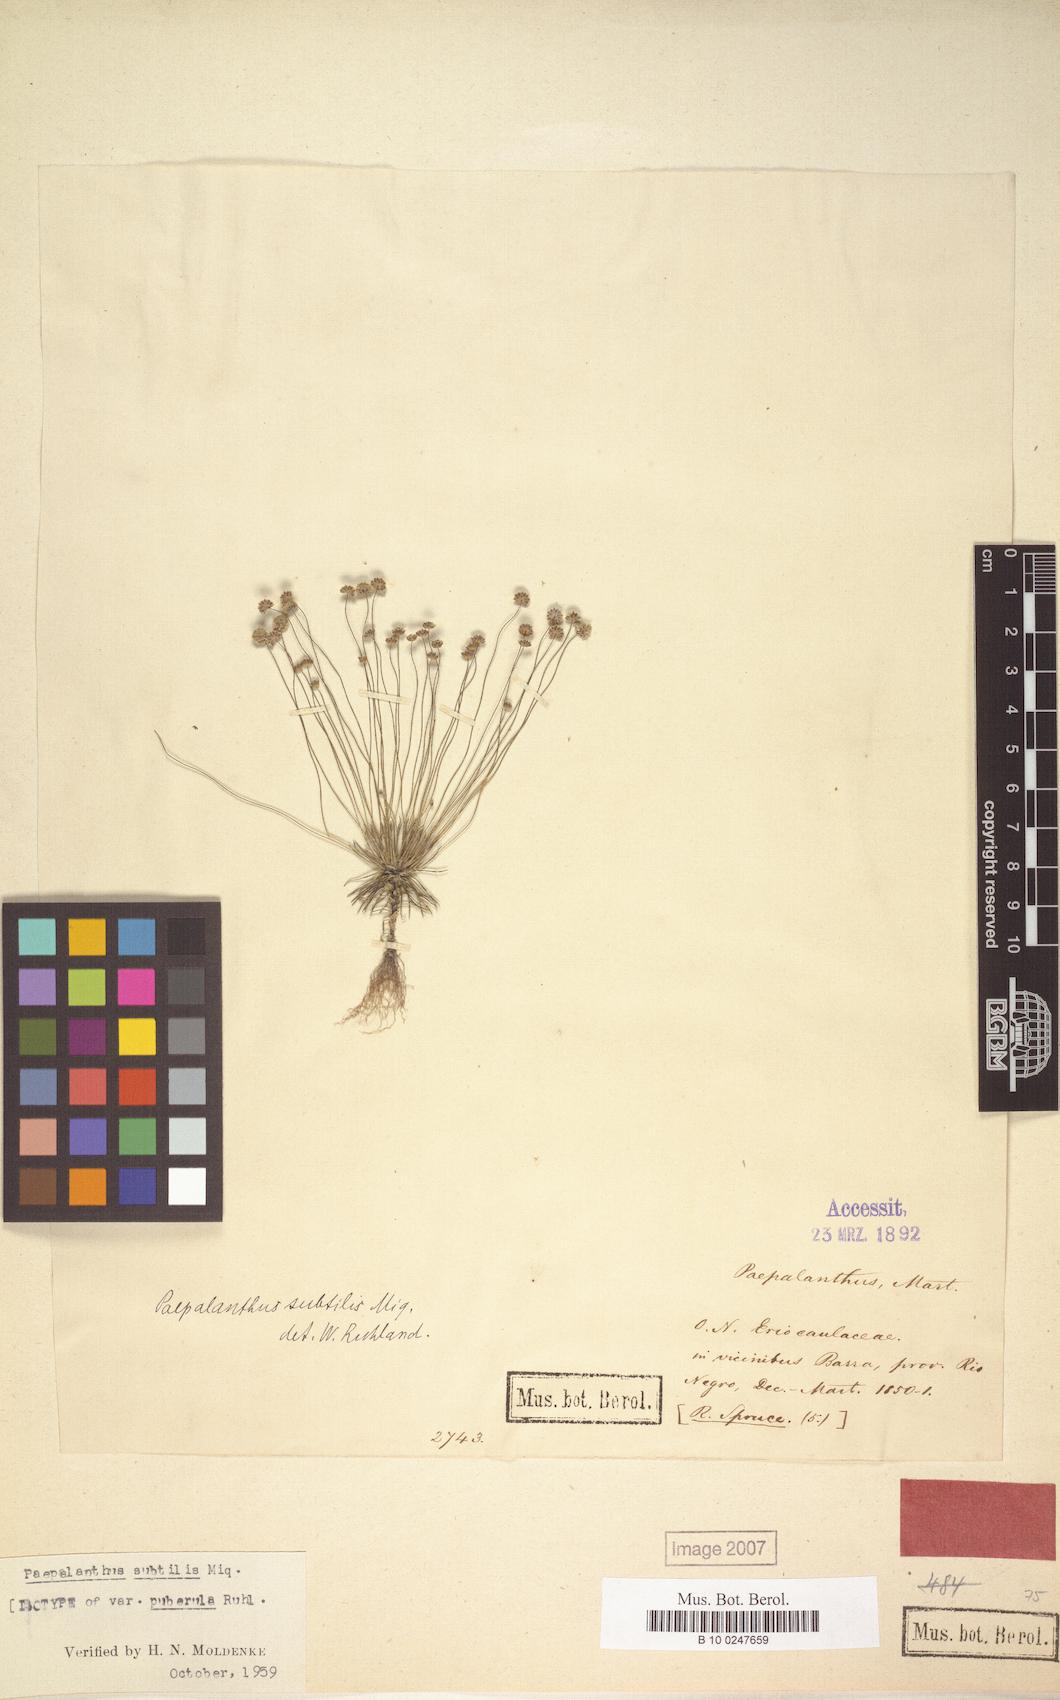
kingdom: Plantae
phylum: Tracheophyta
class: Liliopsida
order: Poales
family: Eriocaulaceae
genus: Paepalanthus
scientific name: Paepalanthus subtilis
